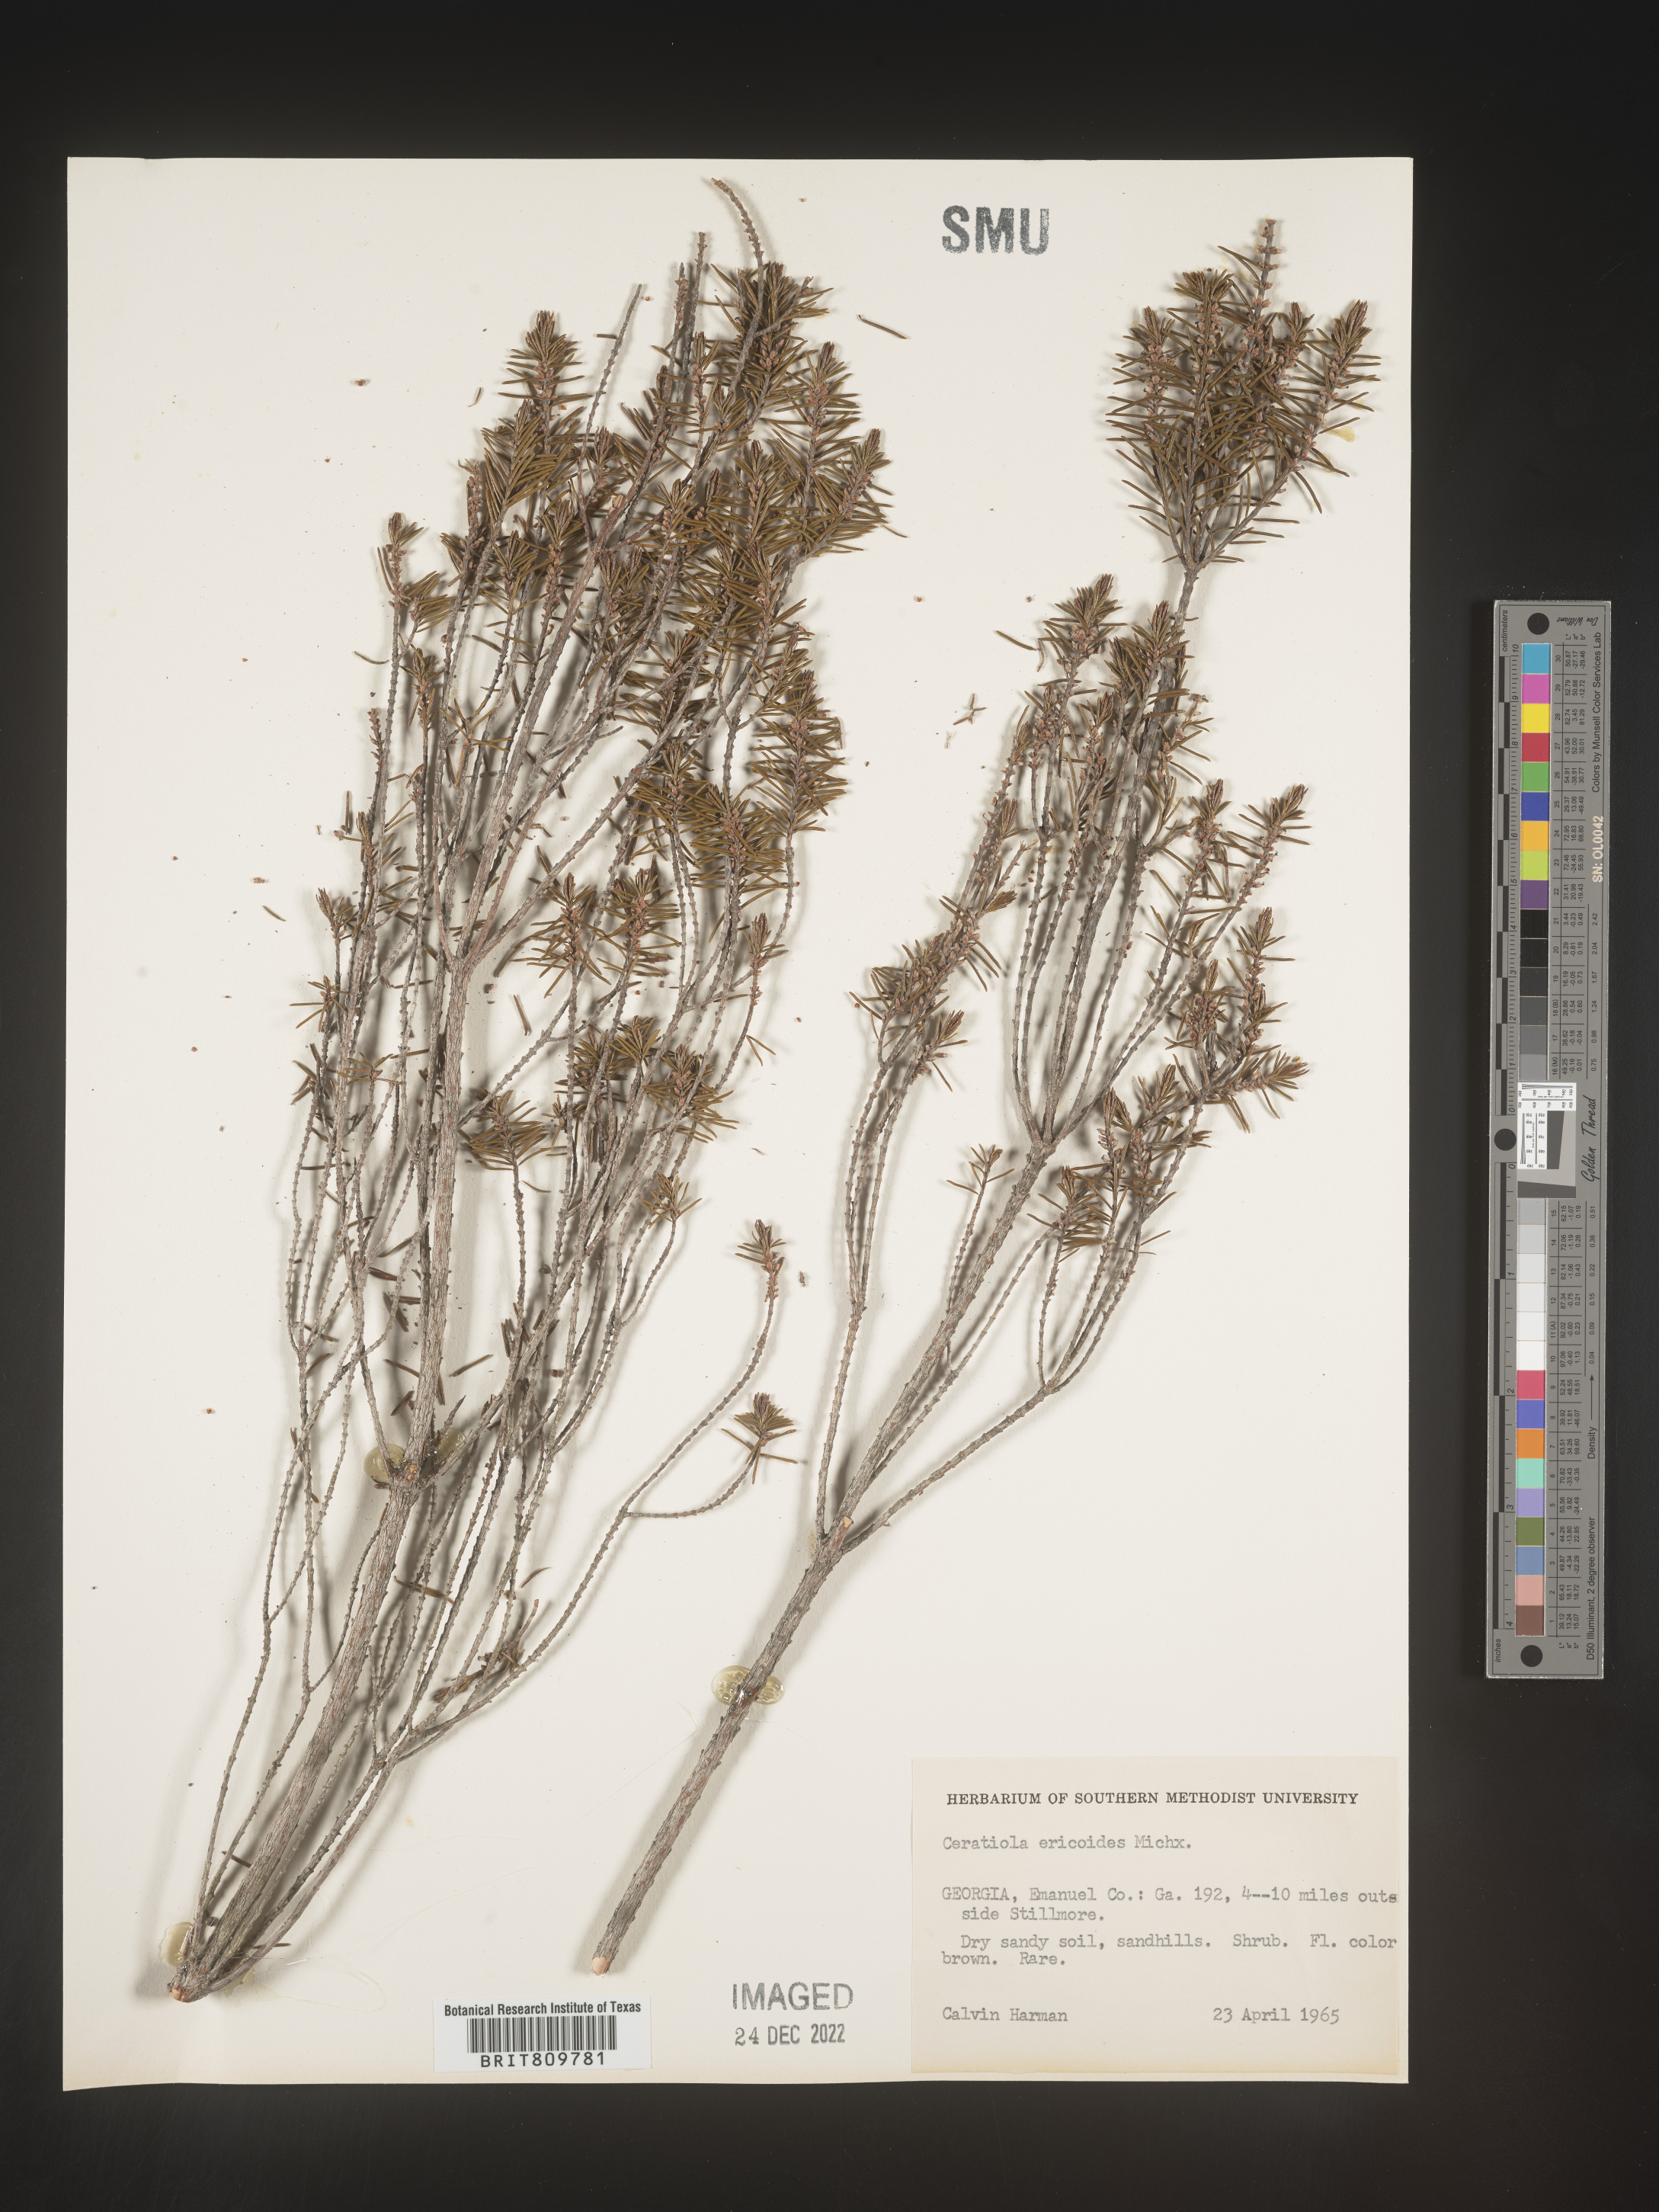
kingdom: Plantae
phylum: Tracheophyta
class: Magnoliopsida
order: Ericales
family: Ericaceae
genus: Ceratiola
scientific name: Ceratiola ericoides
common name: Sandhill-rosemary
